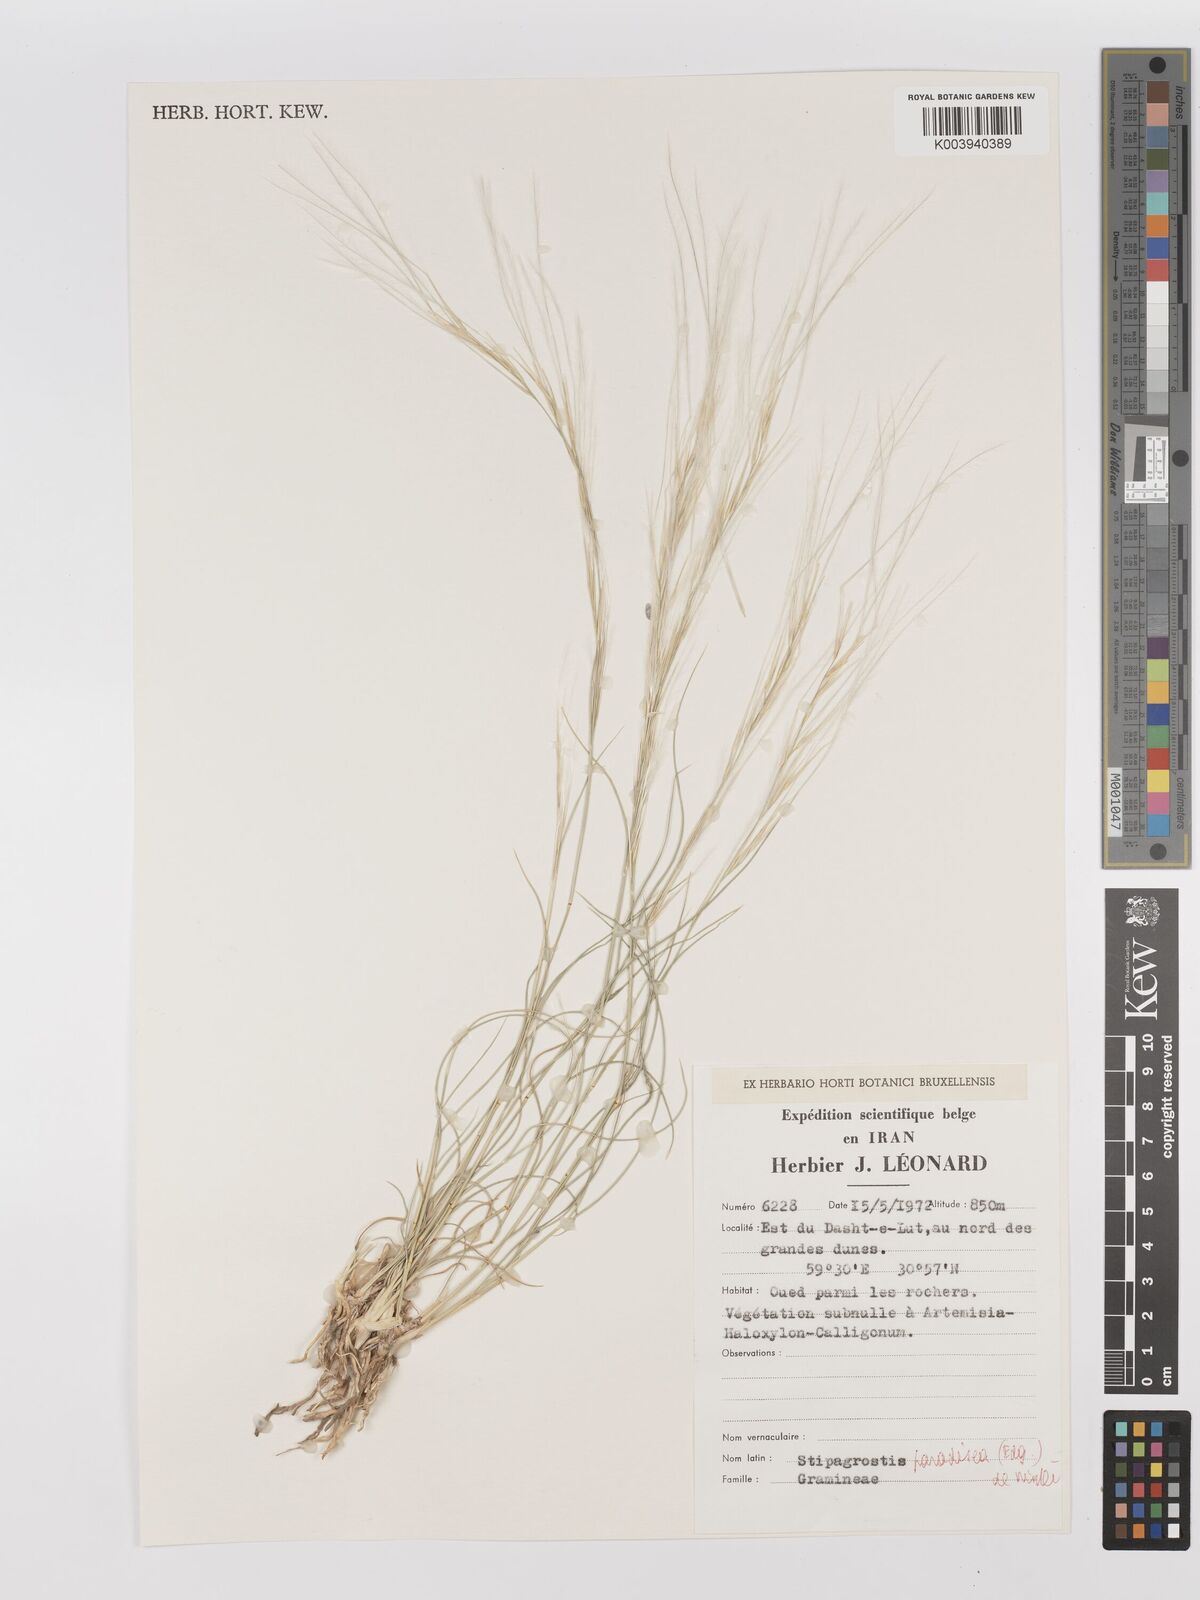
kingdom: Plantae
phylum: Tracheophyta
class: Liliopsida
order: Poales
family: Poaceae
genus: Stipagrostis
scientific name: Stipagrostis paradisea
